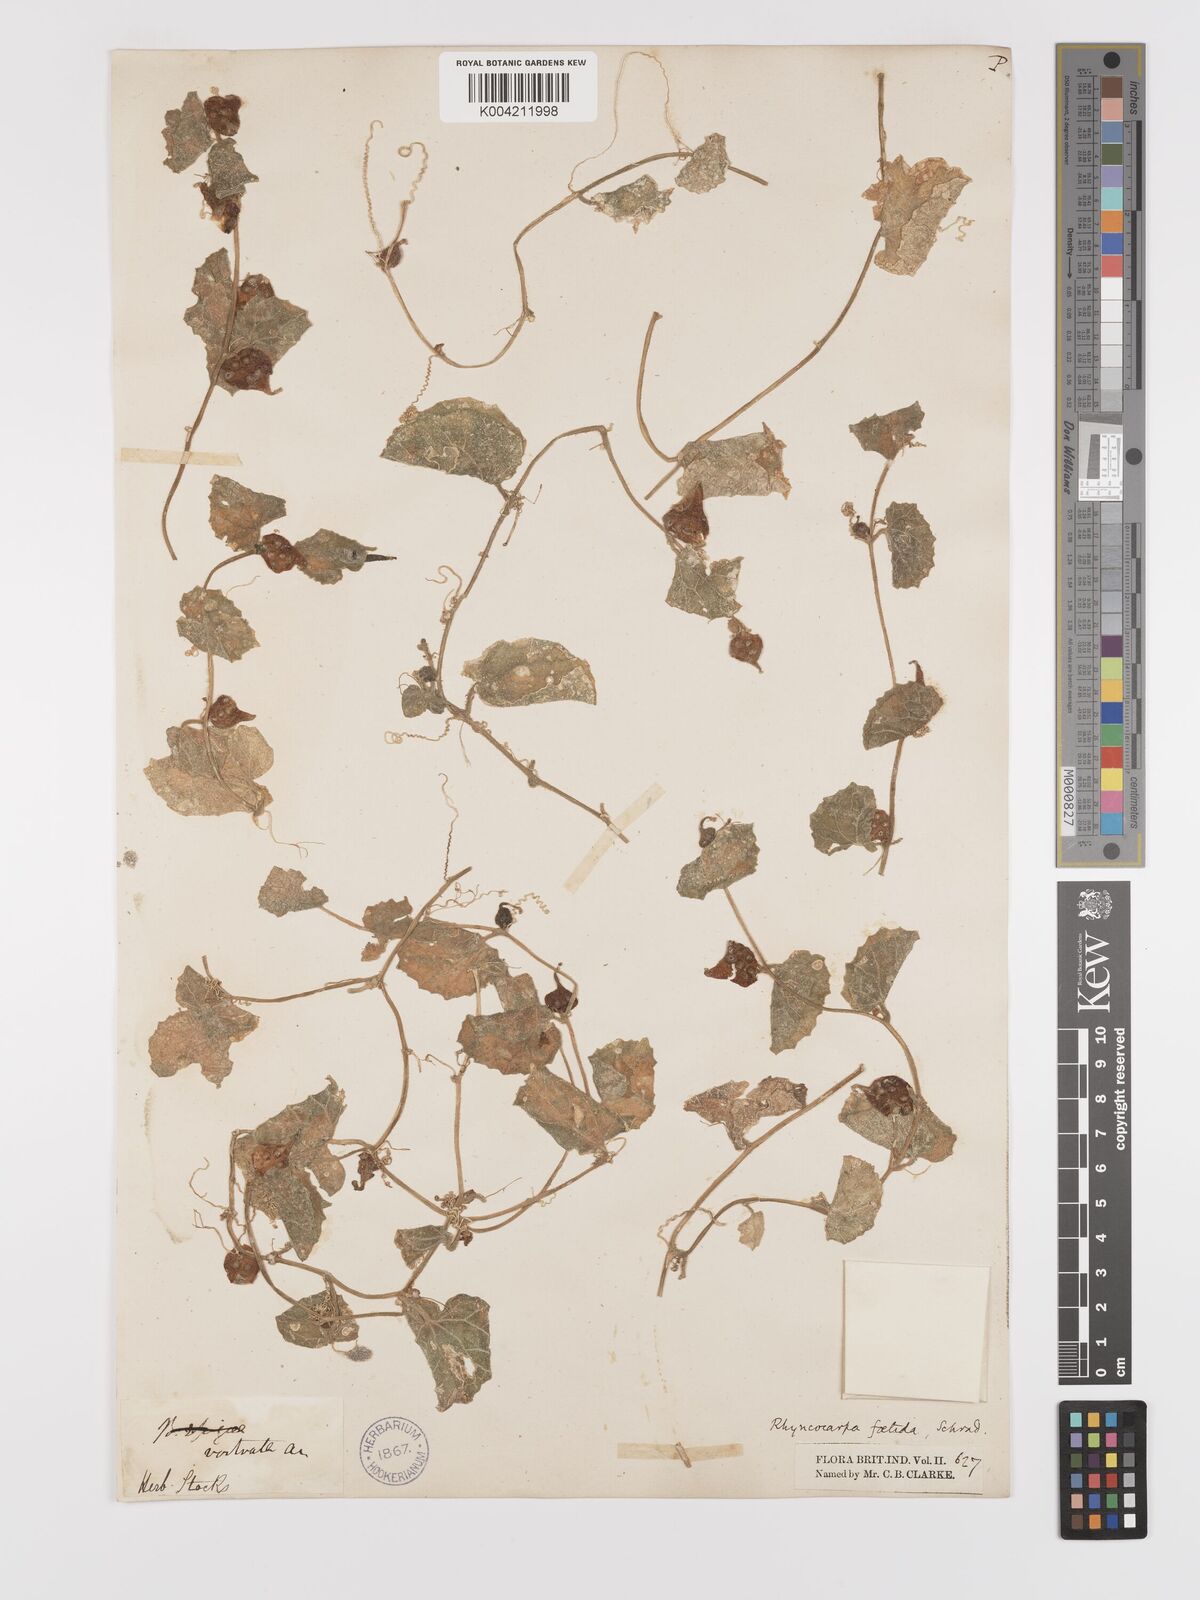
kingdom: Plantae
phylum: Tracheophyta
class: Magnoliopsida
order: Cucurbitales
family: Cucurbitaceae
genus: Kedrostis
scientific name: Kedrostis foetidissima
